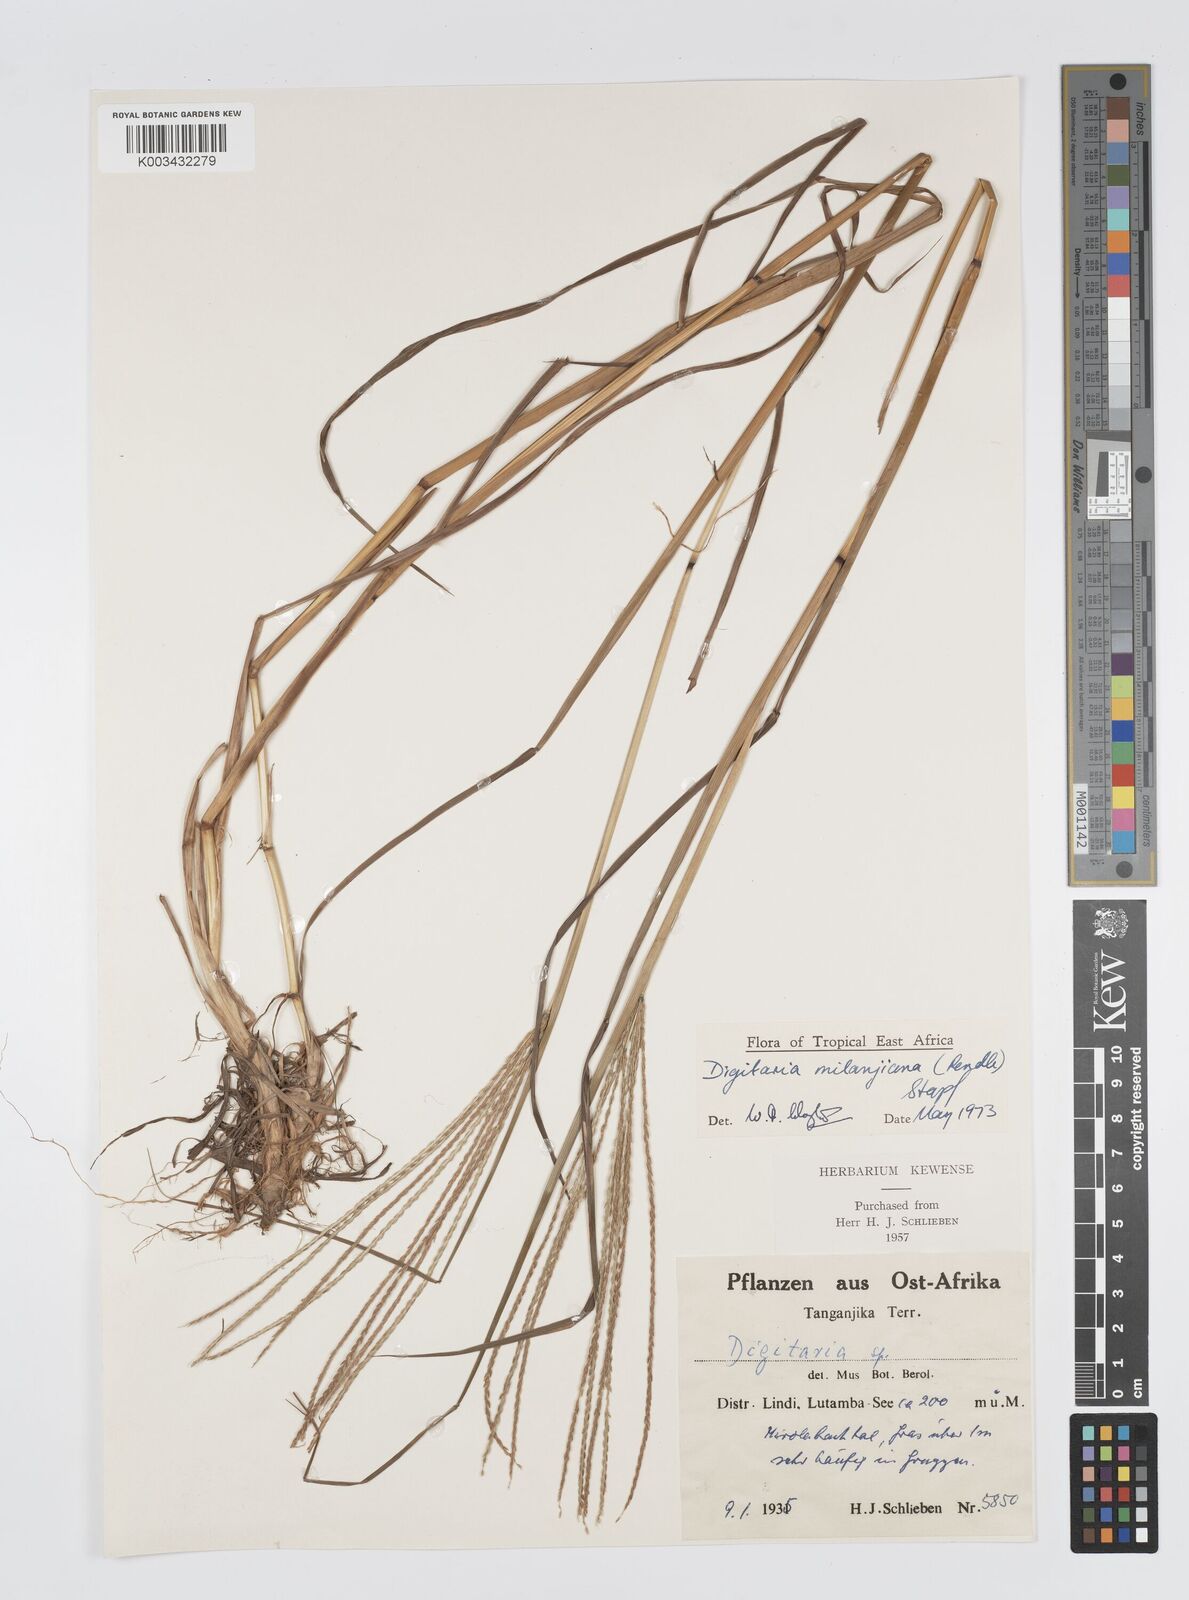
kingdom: Plantae
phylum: Tracheophyta
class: Liliopsida
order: Poales
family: Poaceae
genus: Digitaria
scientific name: Digitaria milanjiana
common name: Madagascar crabgrass
